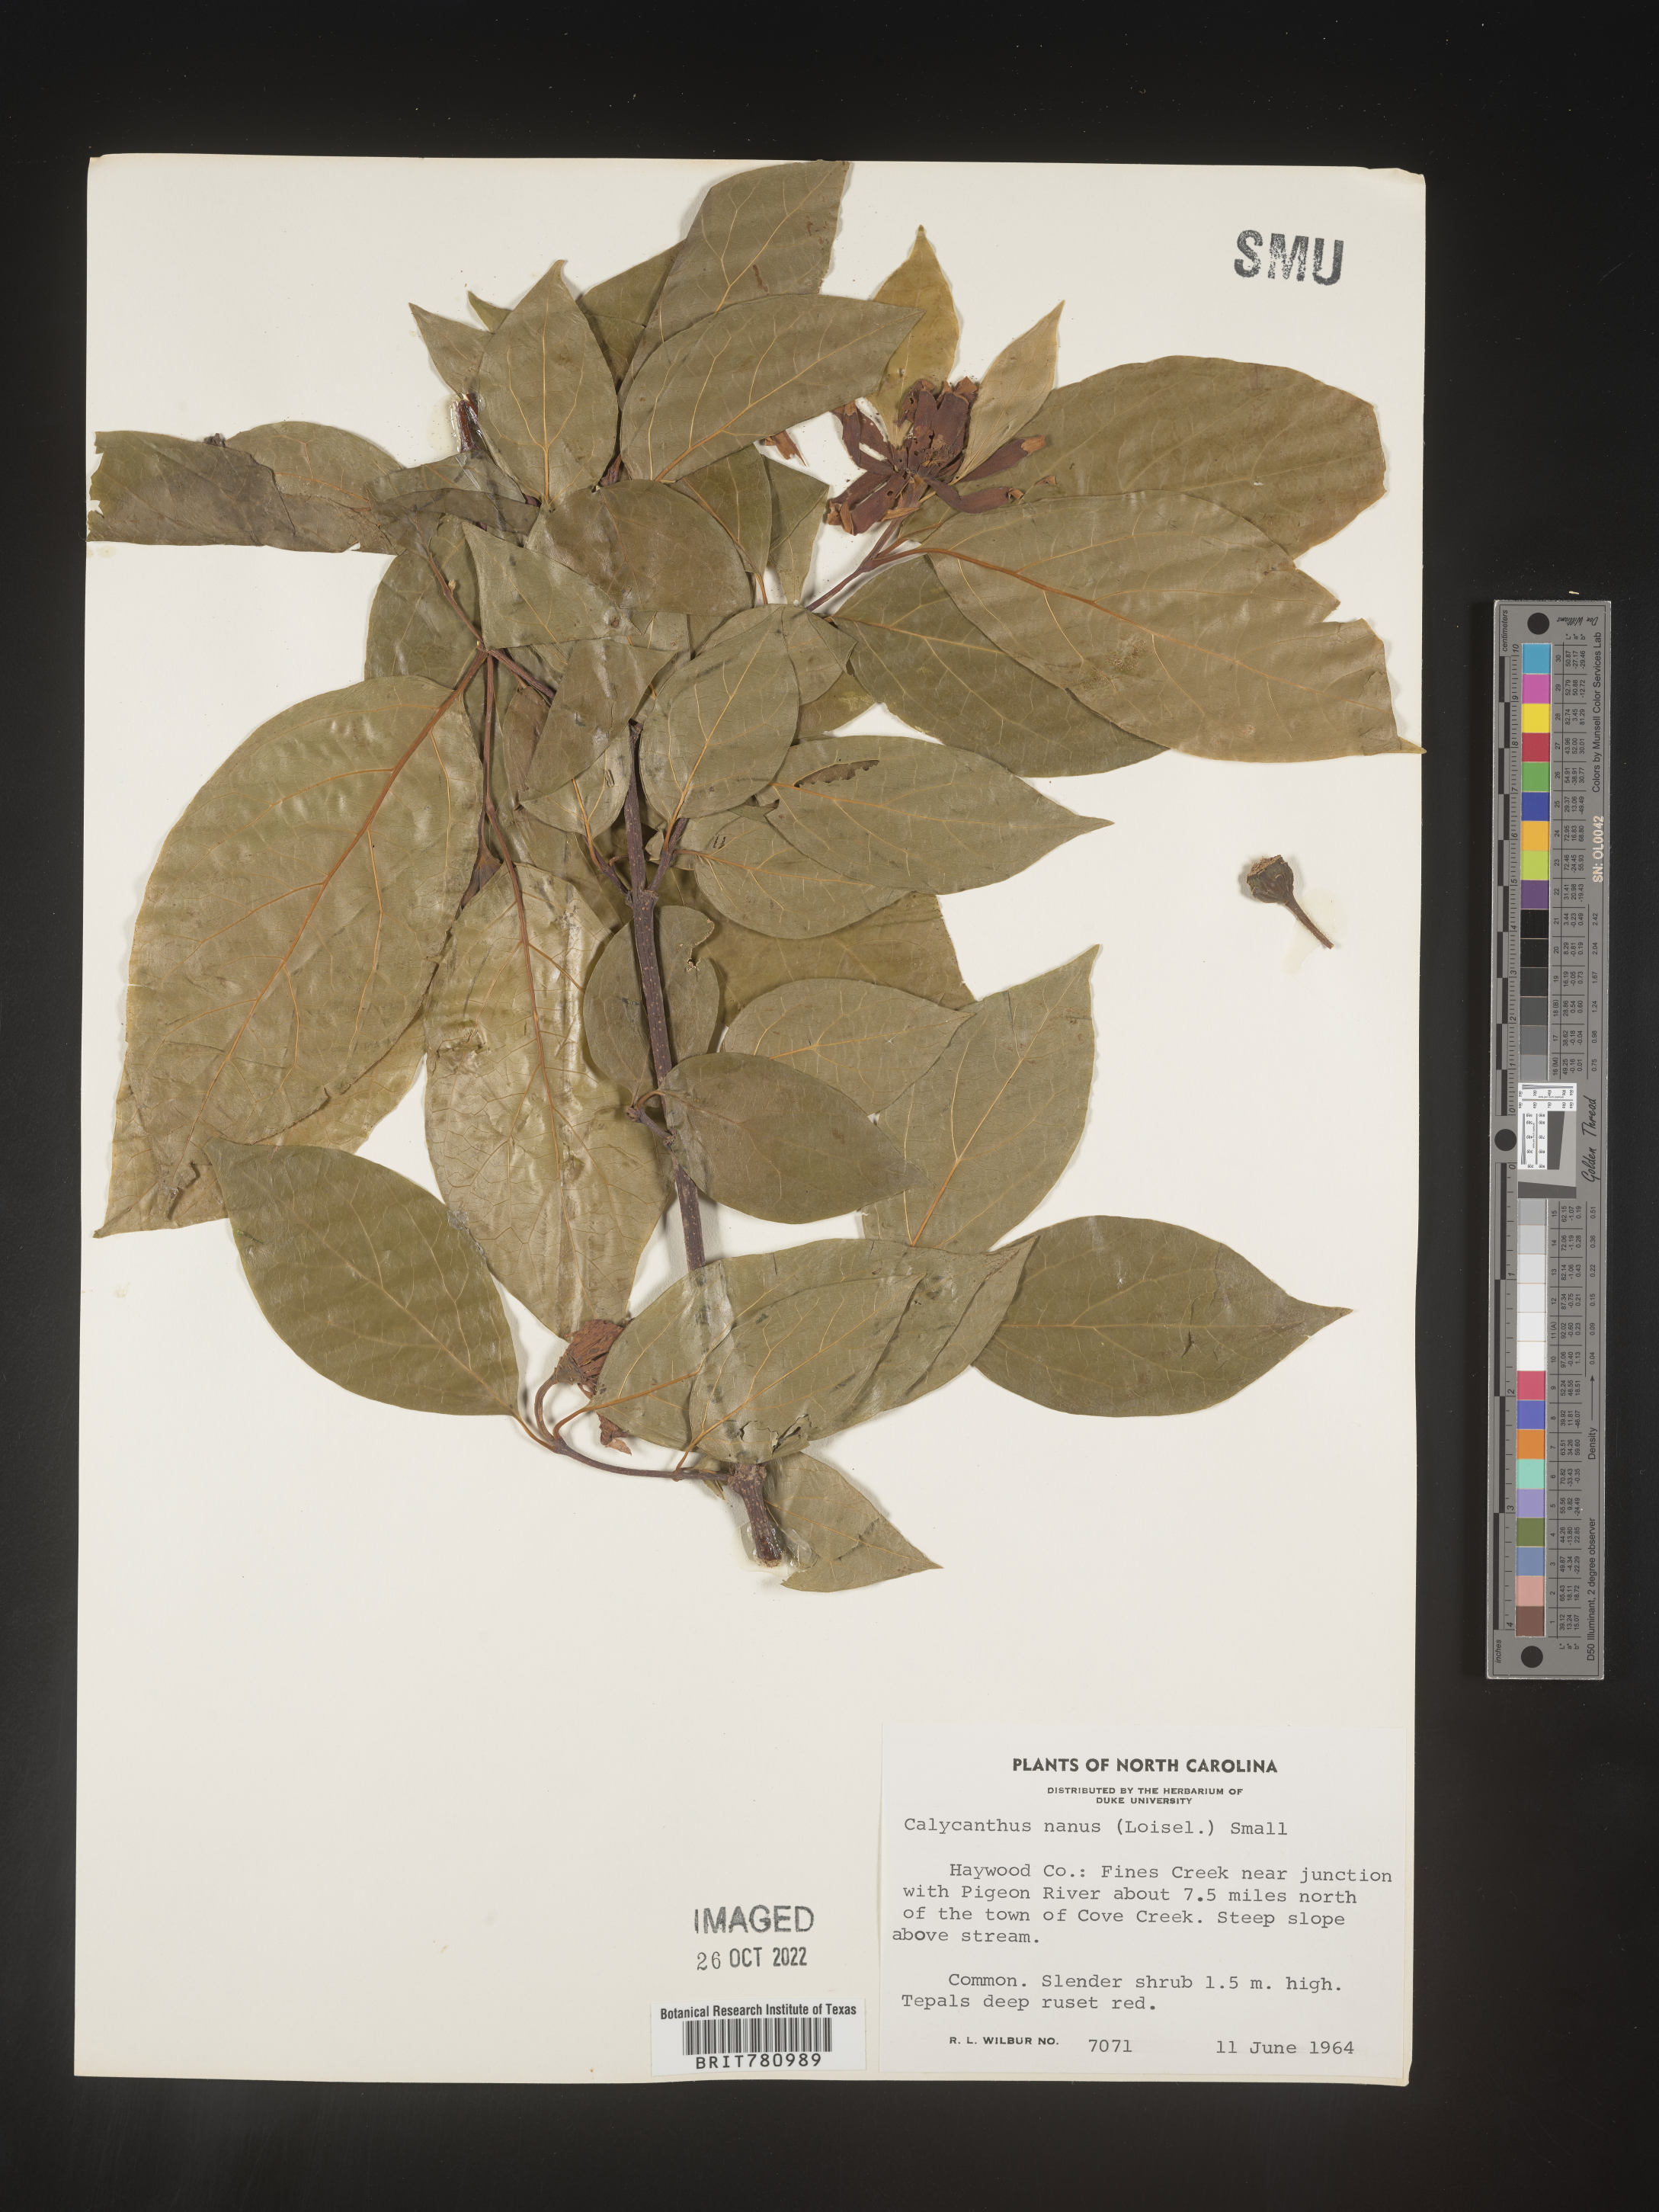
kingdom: Plantae
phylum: Tracheophyta
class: Magnoliopsida
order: Laurales
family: Calycanthaceae
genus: Calycanthus
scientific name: Calycanthus
